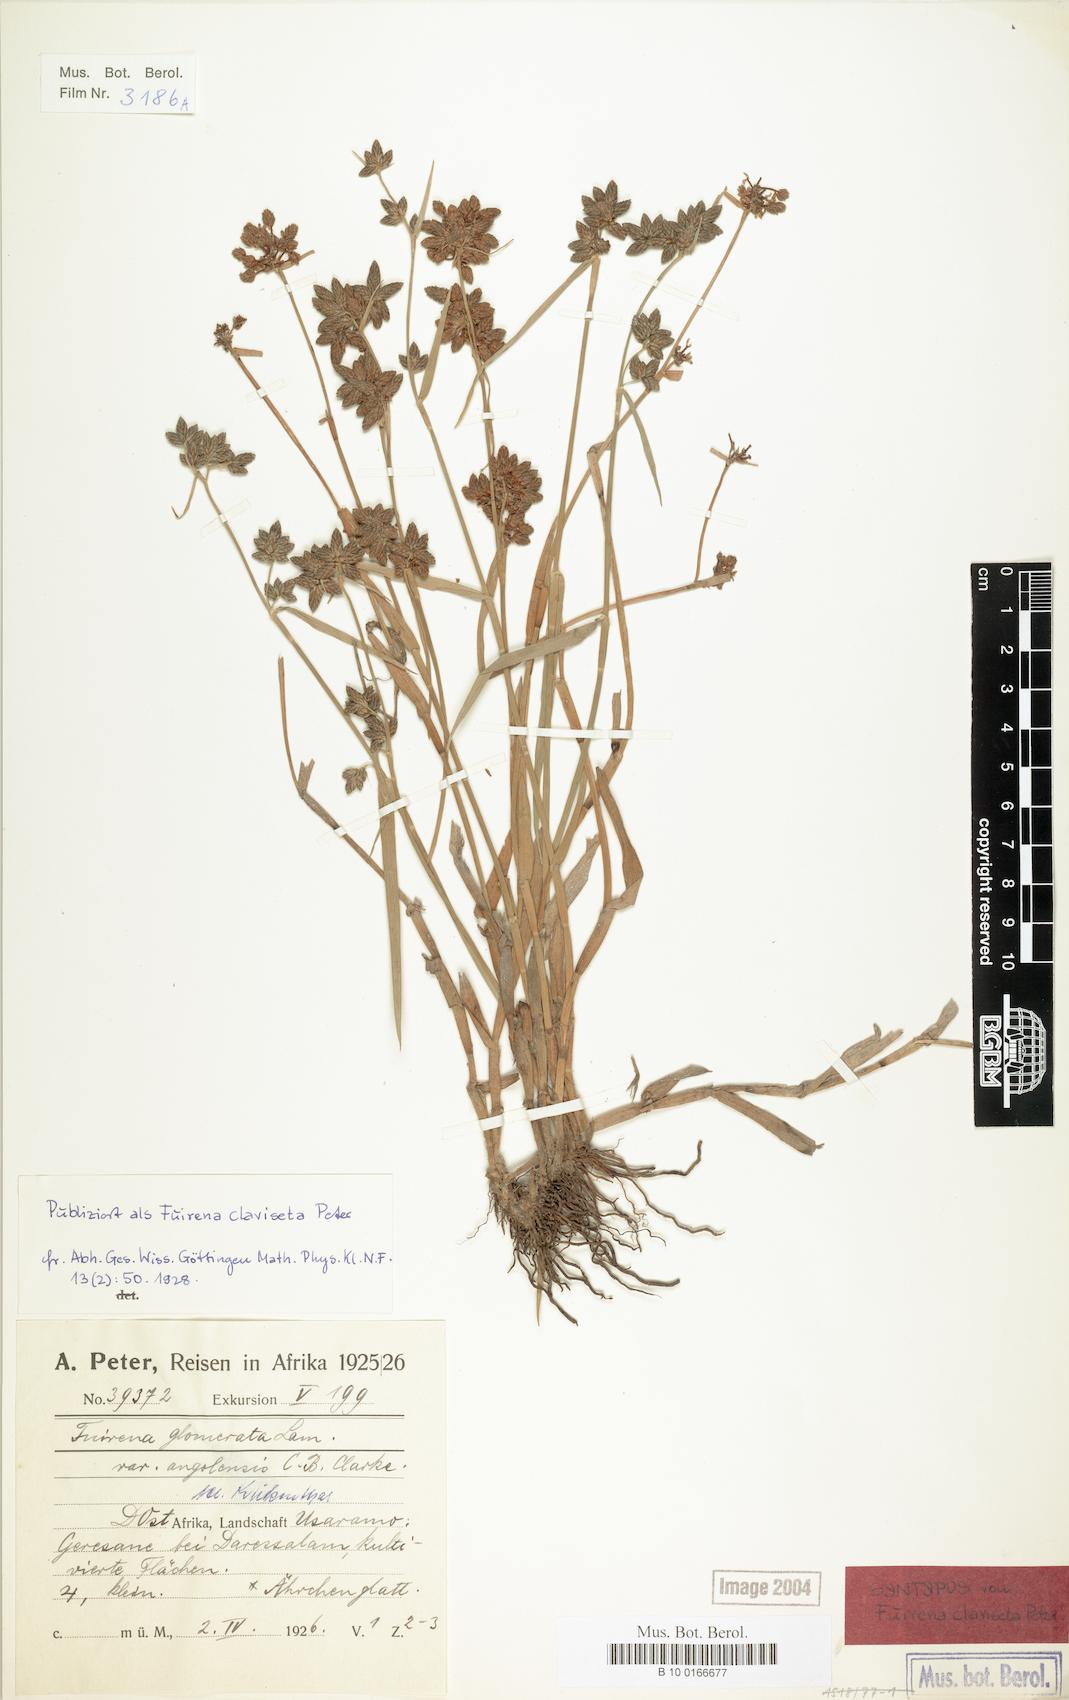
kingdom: Plantae
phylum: Tracheophyta
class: Liliopsida
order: Poales
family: Cyperaceae
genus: Fuirena
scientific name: Fuirena ciliaris
